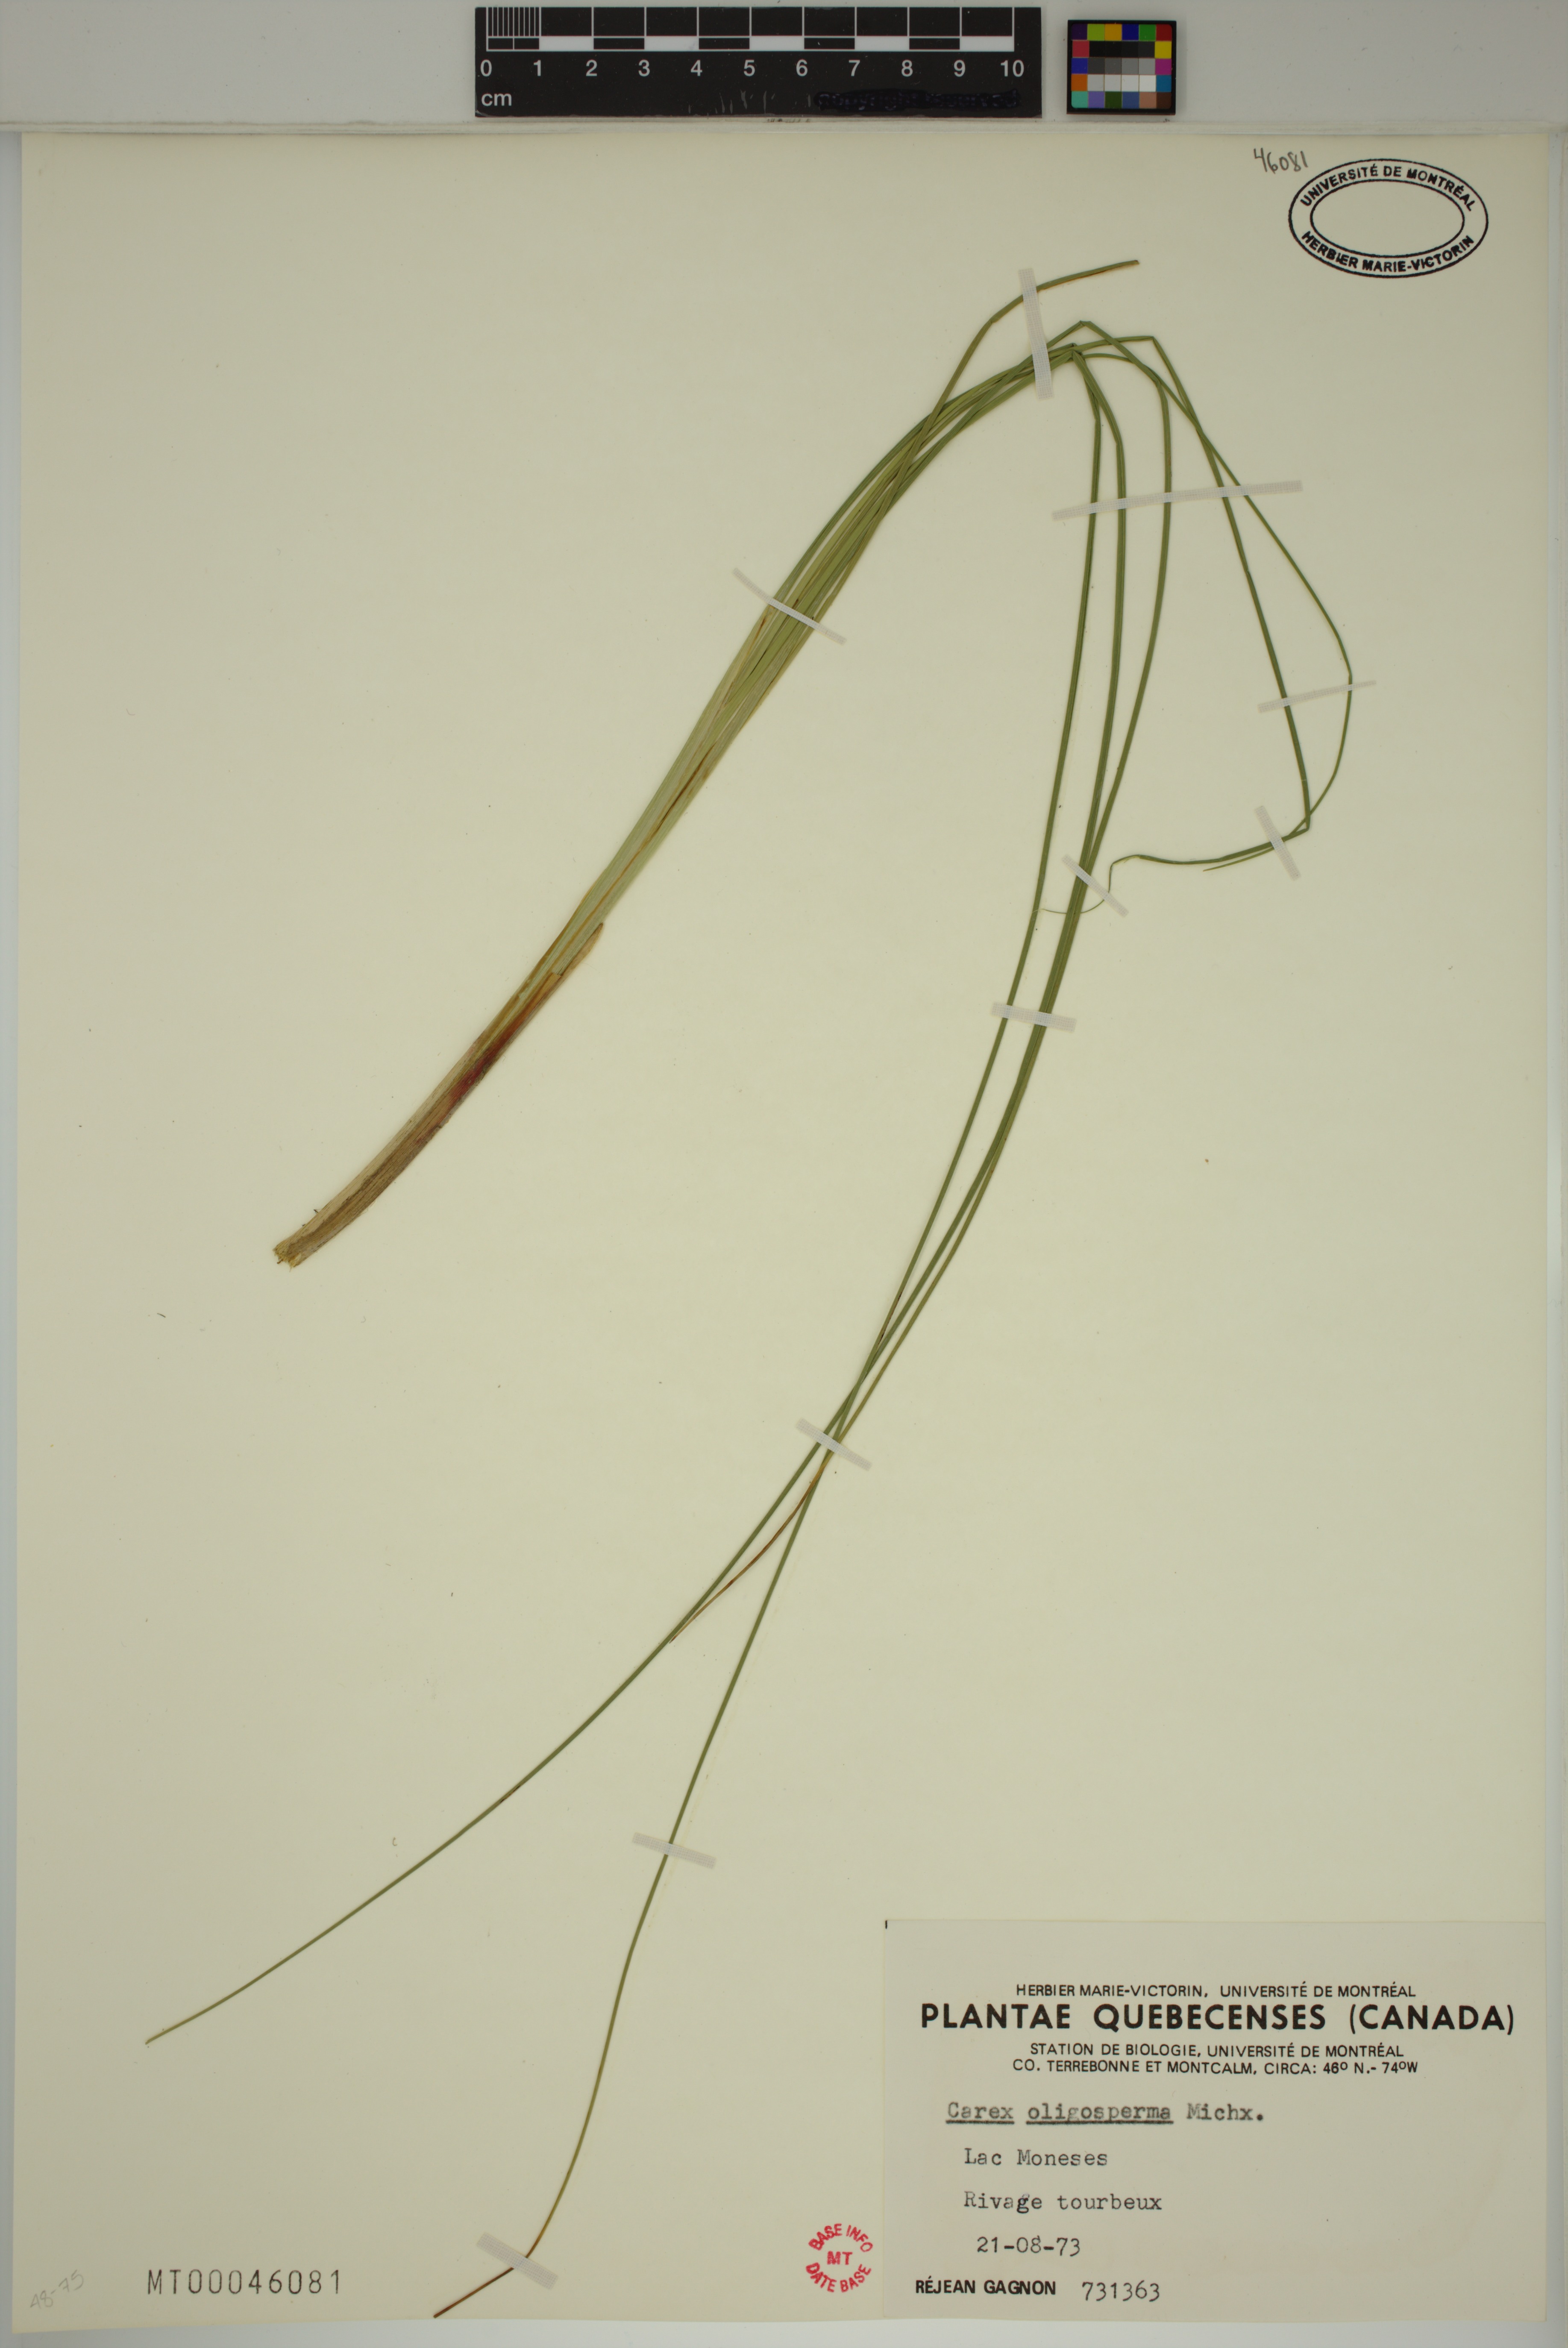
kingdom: Plantae
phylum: Tracheophyta
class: Liliopsida
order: Poales
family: Cyperaceae
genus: Carex
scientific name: Carex oligosperma
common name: Few-seed sedge
